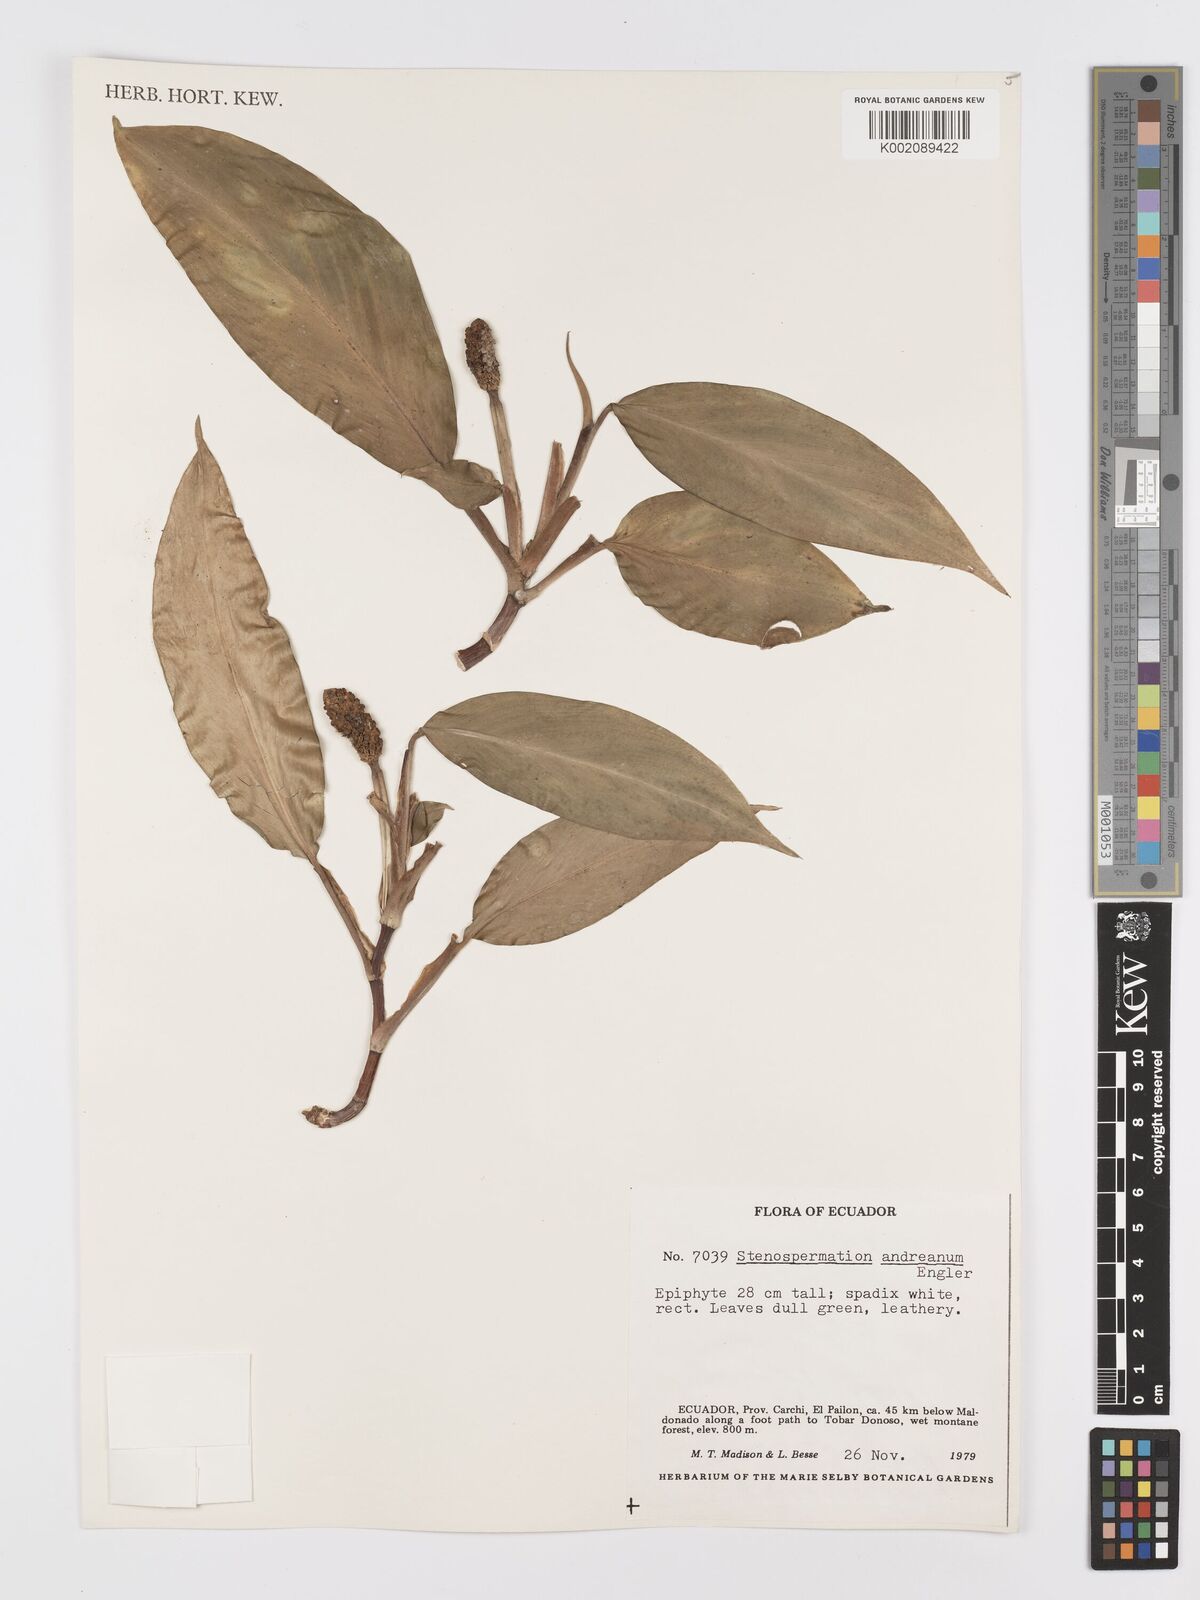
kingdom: Plantae
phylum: Tracheophyta
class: Liliopsida
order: Alismatales
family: Araceae
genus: Stenospermation
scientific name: Stenospermation andreanum
